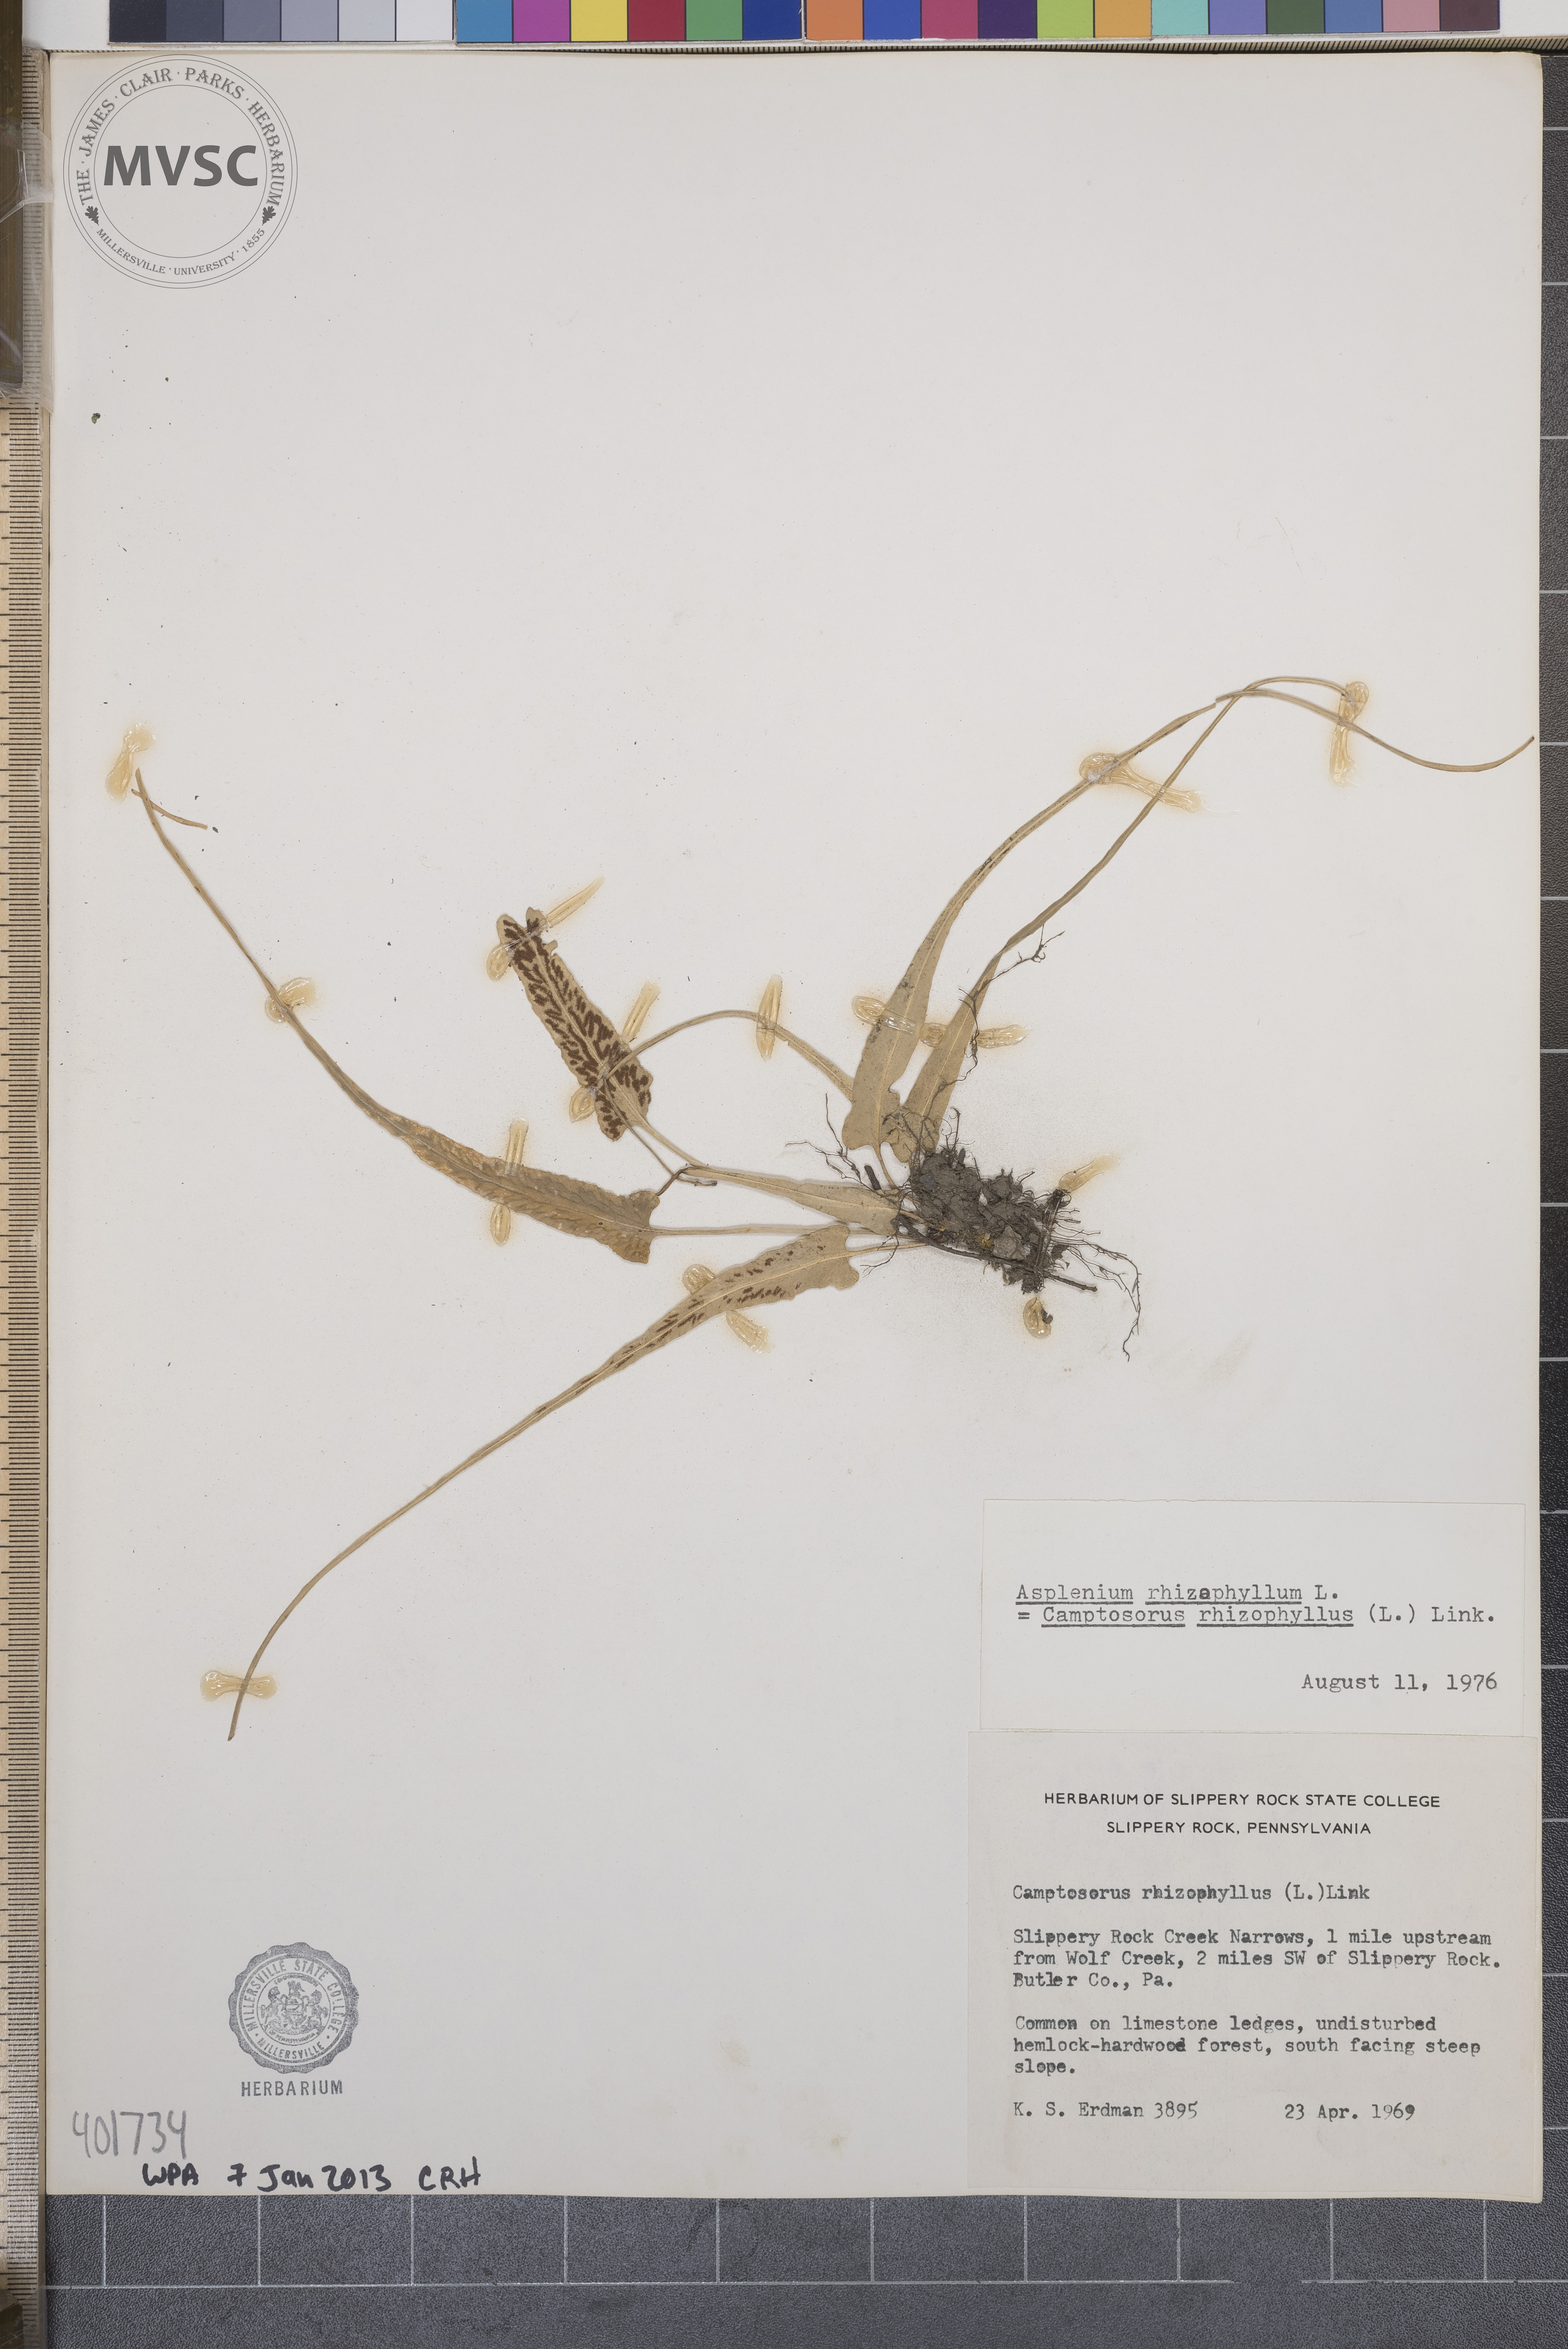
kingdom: Plantae
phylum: Tracheophyta
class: Polypodiopsida
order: Polypodiales
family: Aspleniaceae
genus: Asplenium
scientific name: Asplenium rhizophyllum
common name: Walking fern
